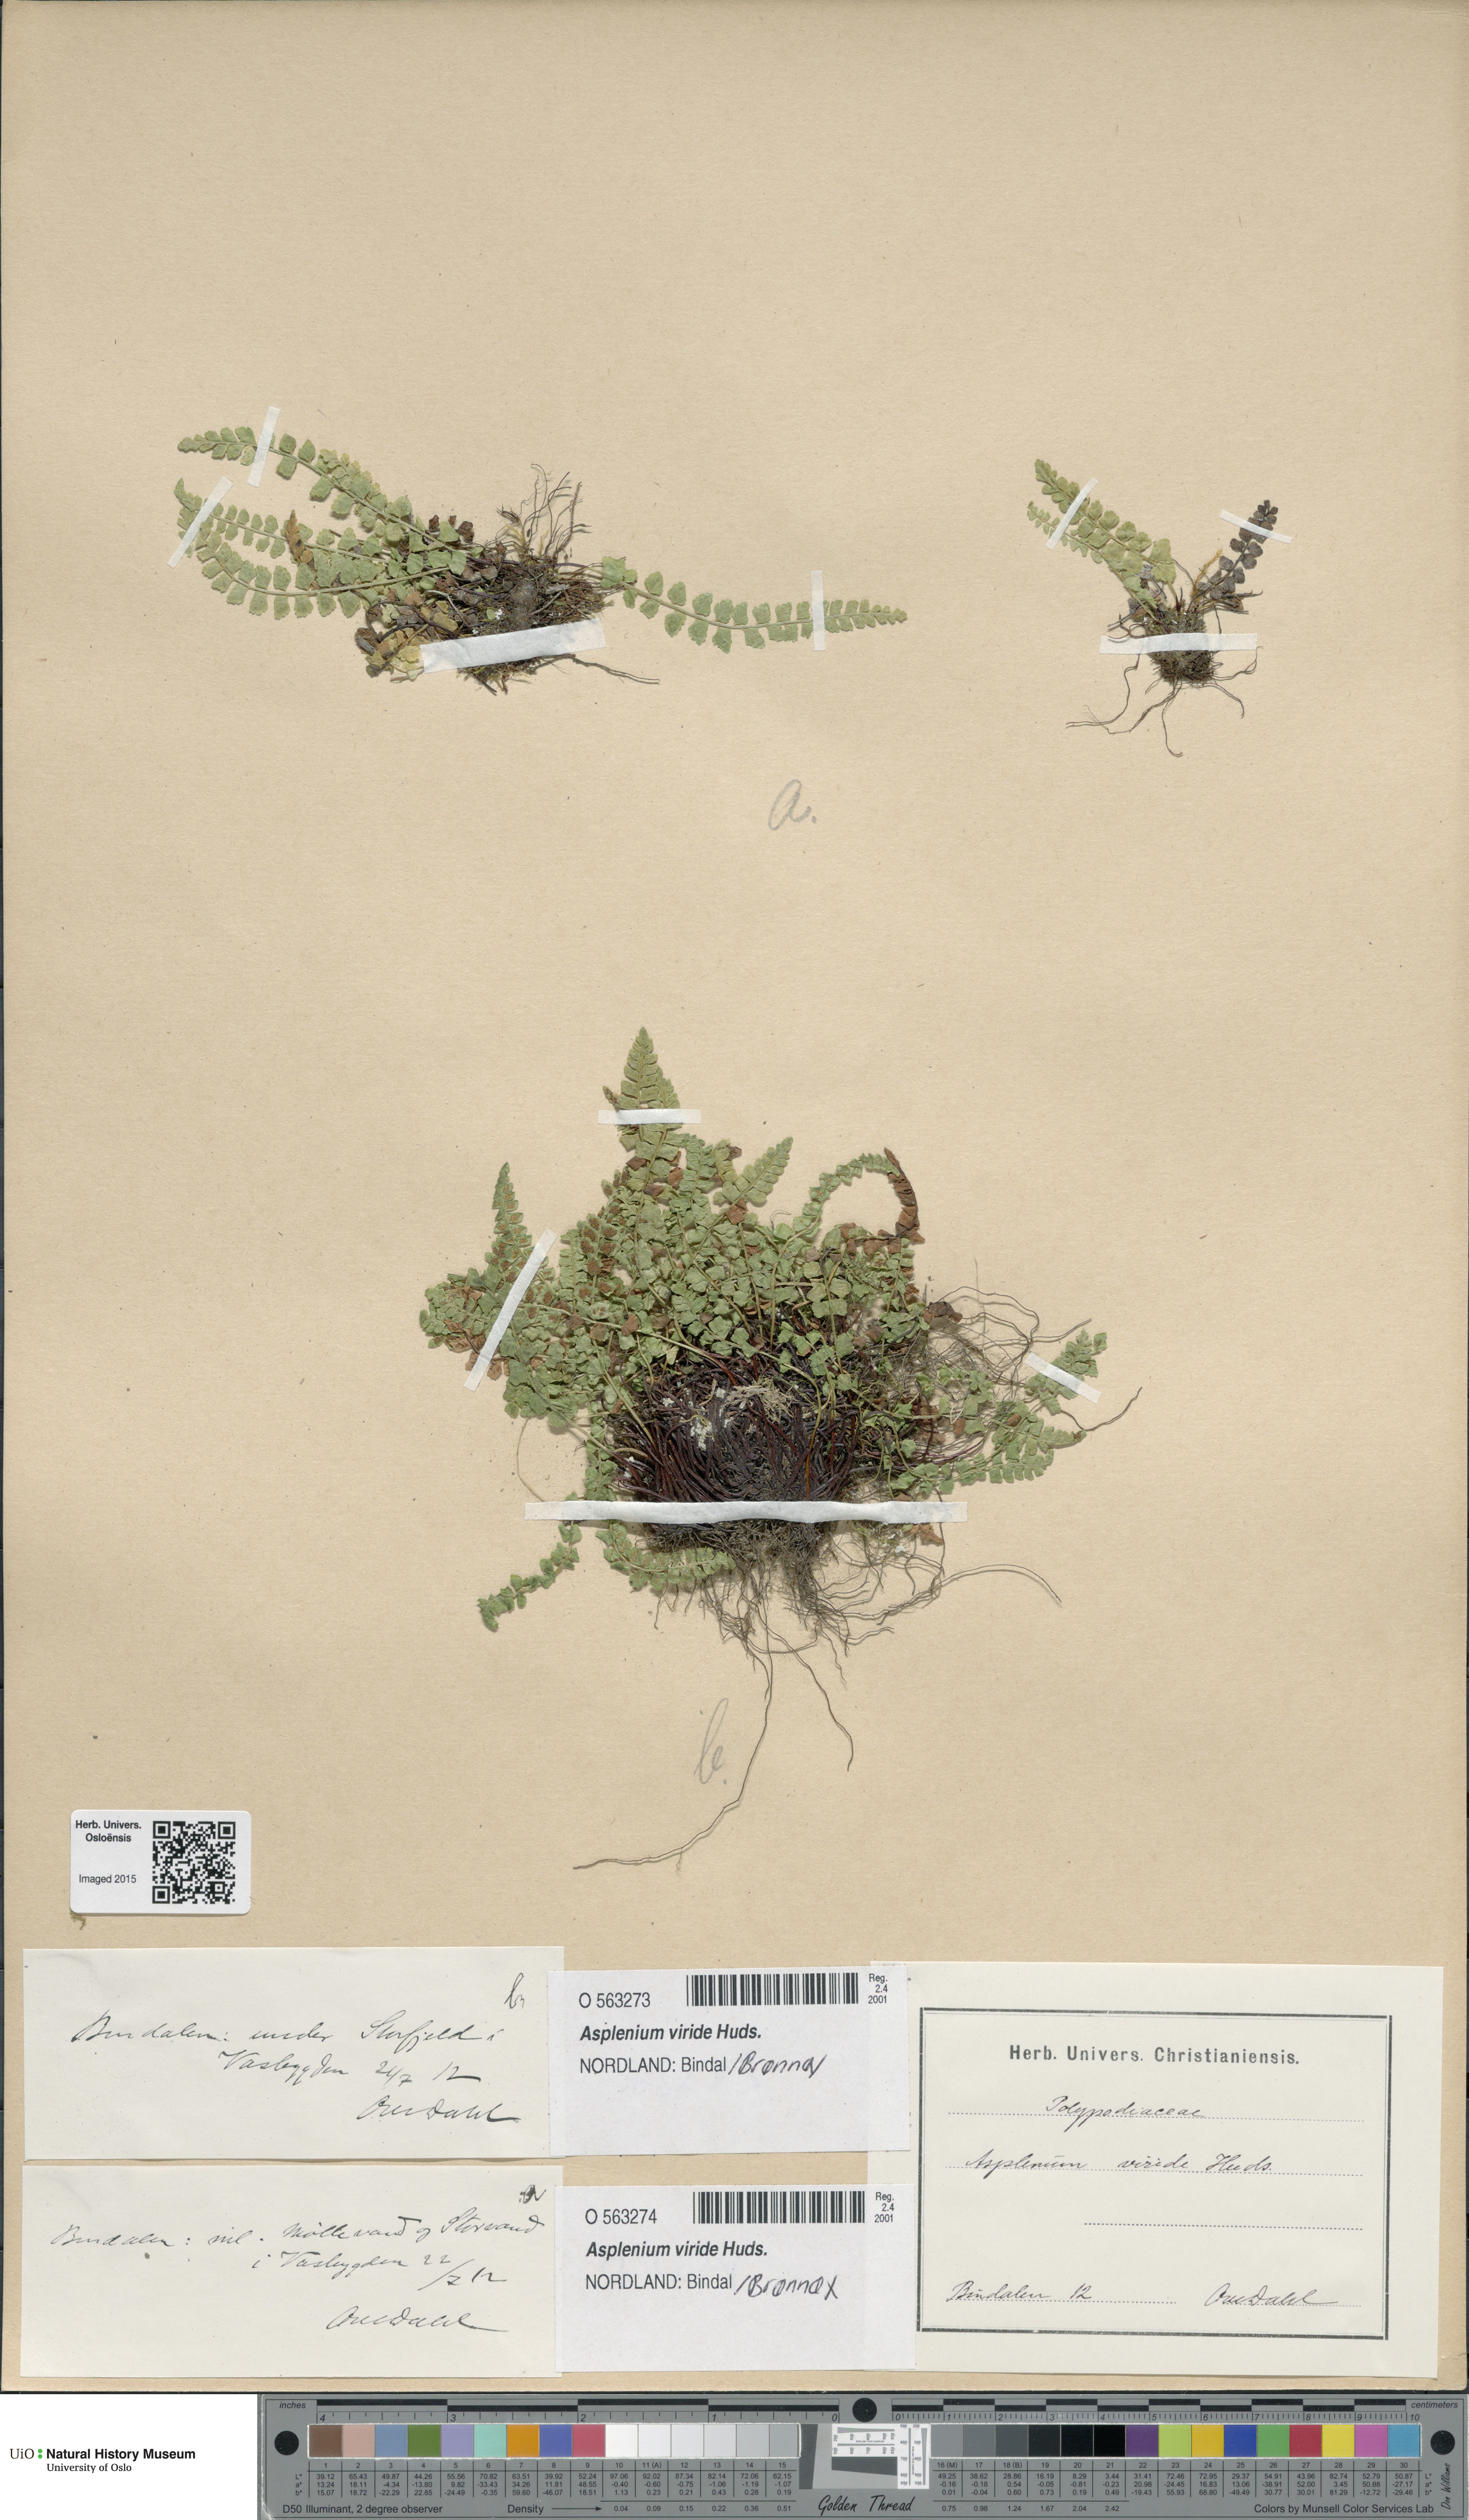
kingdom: Plantae
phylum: Tracheophyta
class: Polypodiopsida
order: Polypodiales
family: Aspleniaceae
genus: Asplenium
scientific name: Asplenium viride
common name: Green spleenwort
